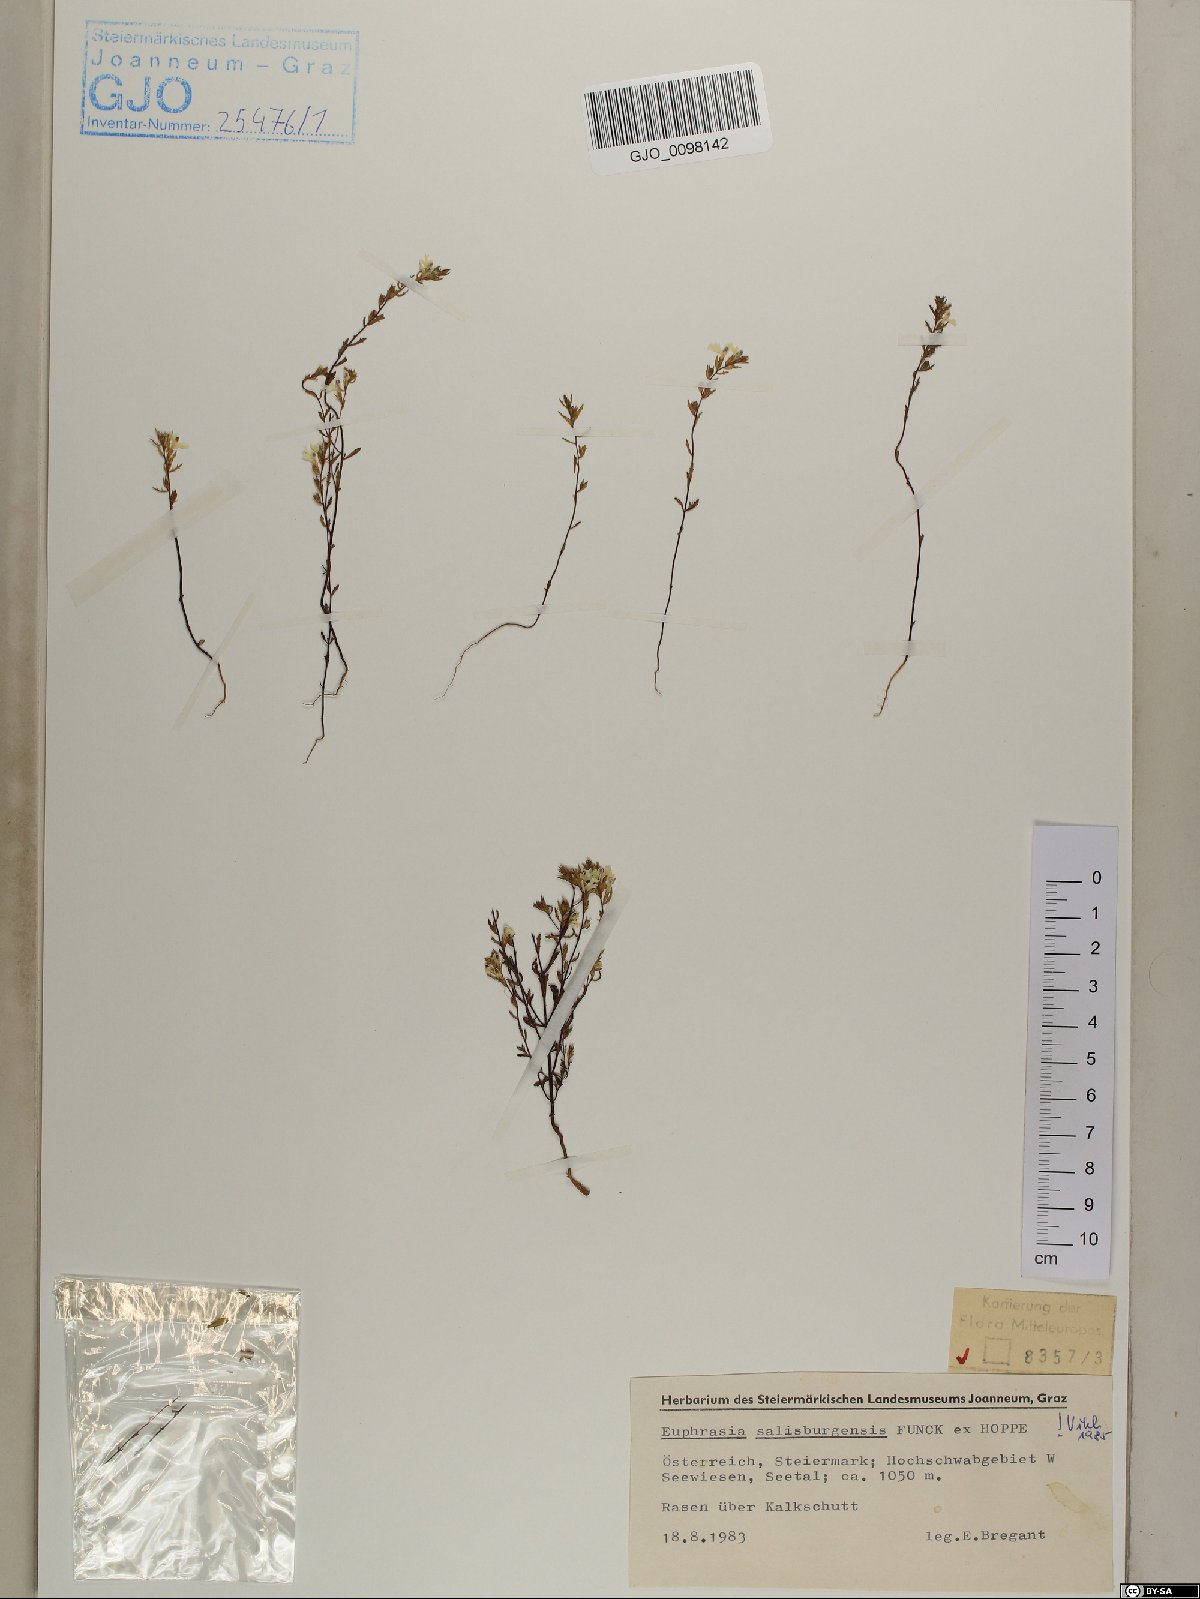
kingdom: Plantae
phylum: Tracheophyta
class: Magnoliopsida
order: Lamiales
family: Orobanchaceae
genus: Euphrasia
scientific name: Euphrasia salisburgensis
